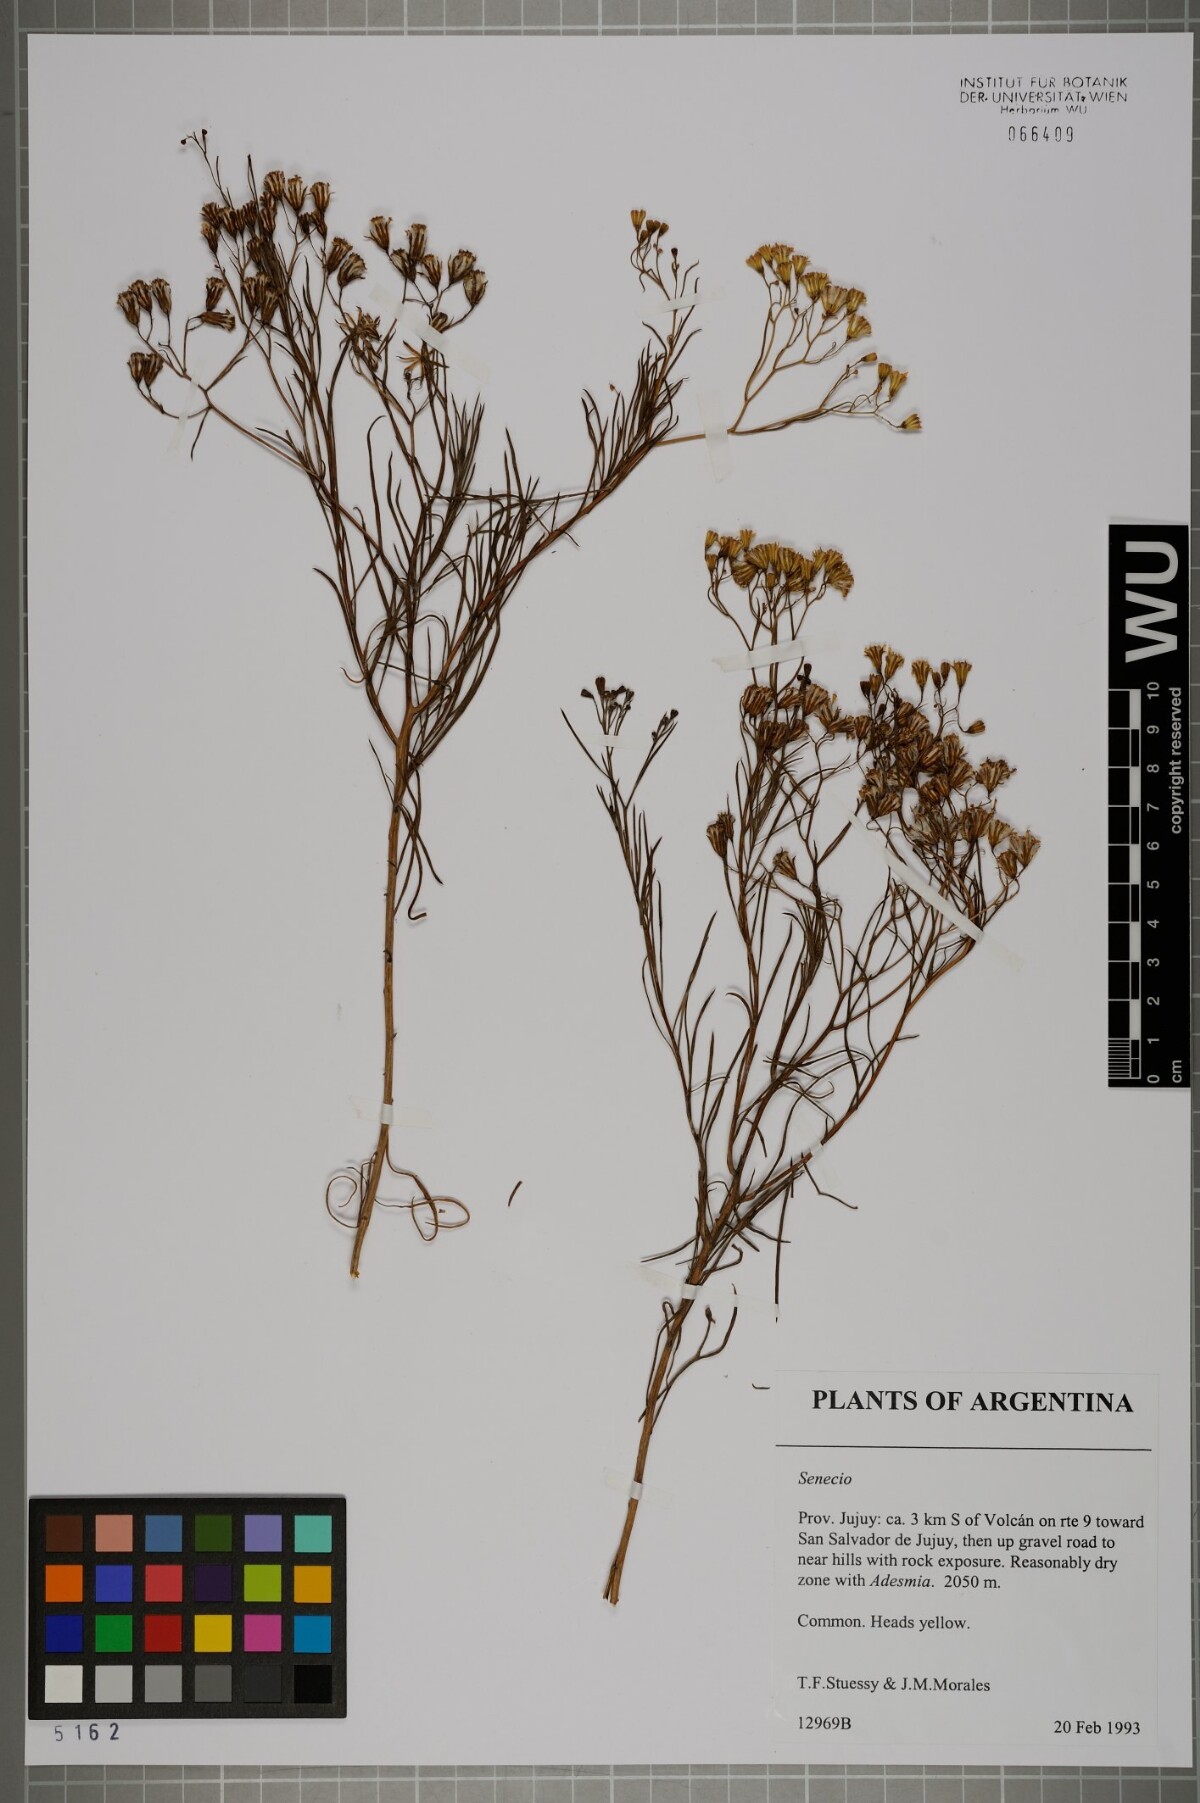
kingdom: Plantae
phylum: Tracheophyta
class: Magnoliopsida
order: Asterales
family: Asteraceae
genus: Senecio
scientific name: Senecio
